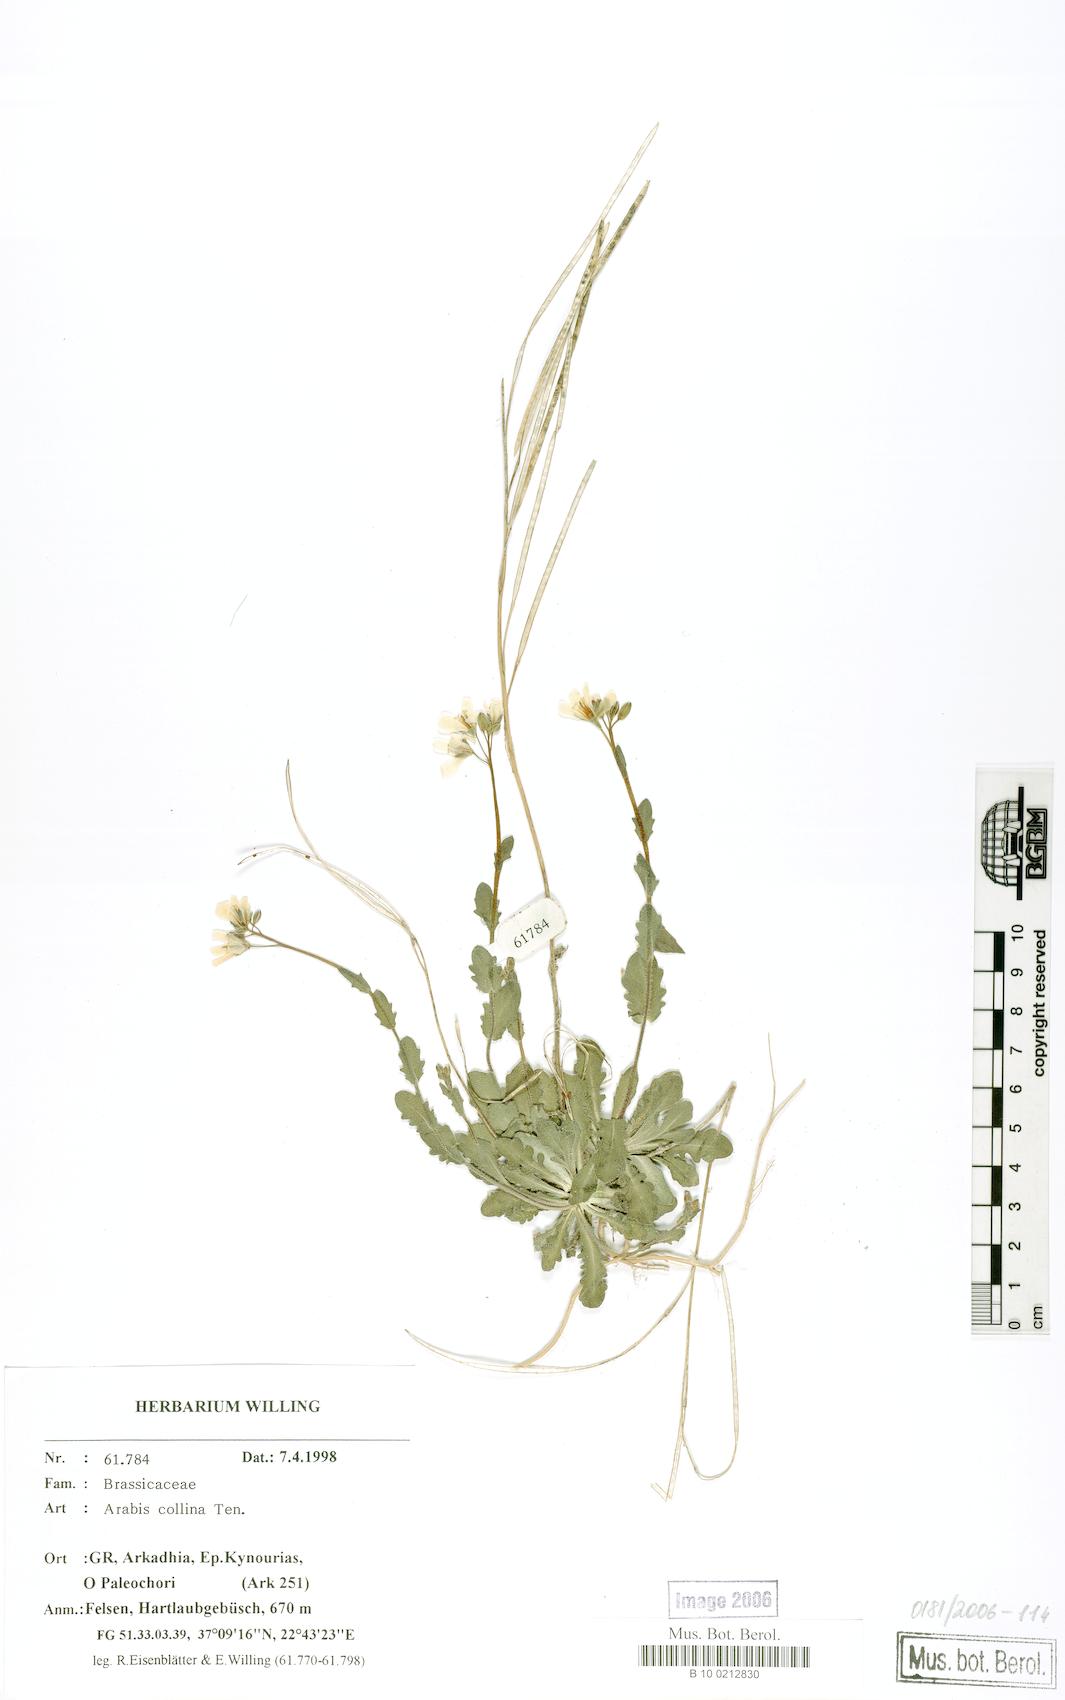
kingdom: Plantae
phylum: Tracheophyta
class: Magnoliopsida
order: Brassicales
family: Brassicaceae
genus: Arabis
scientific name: Arabis collina
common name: Rosy cress
